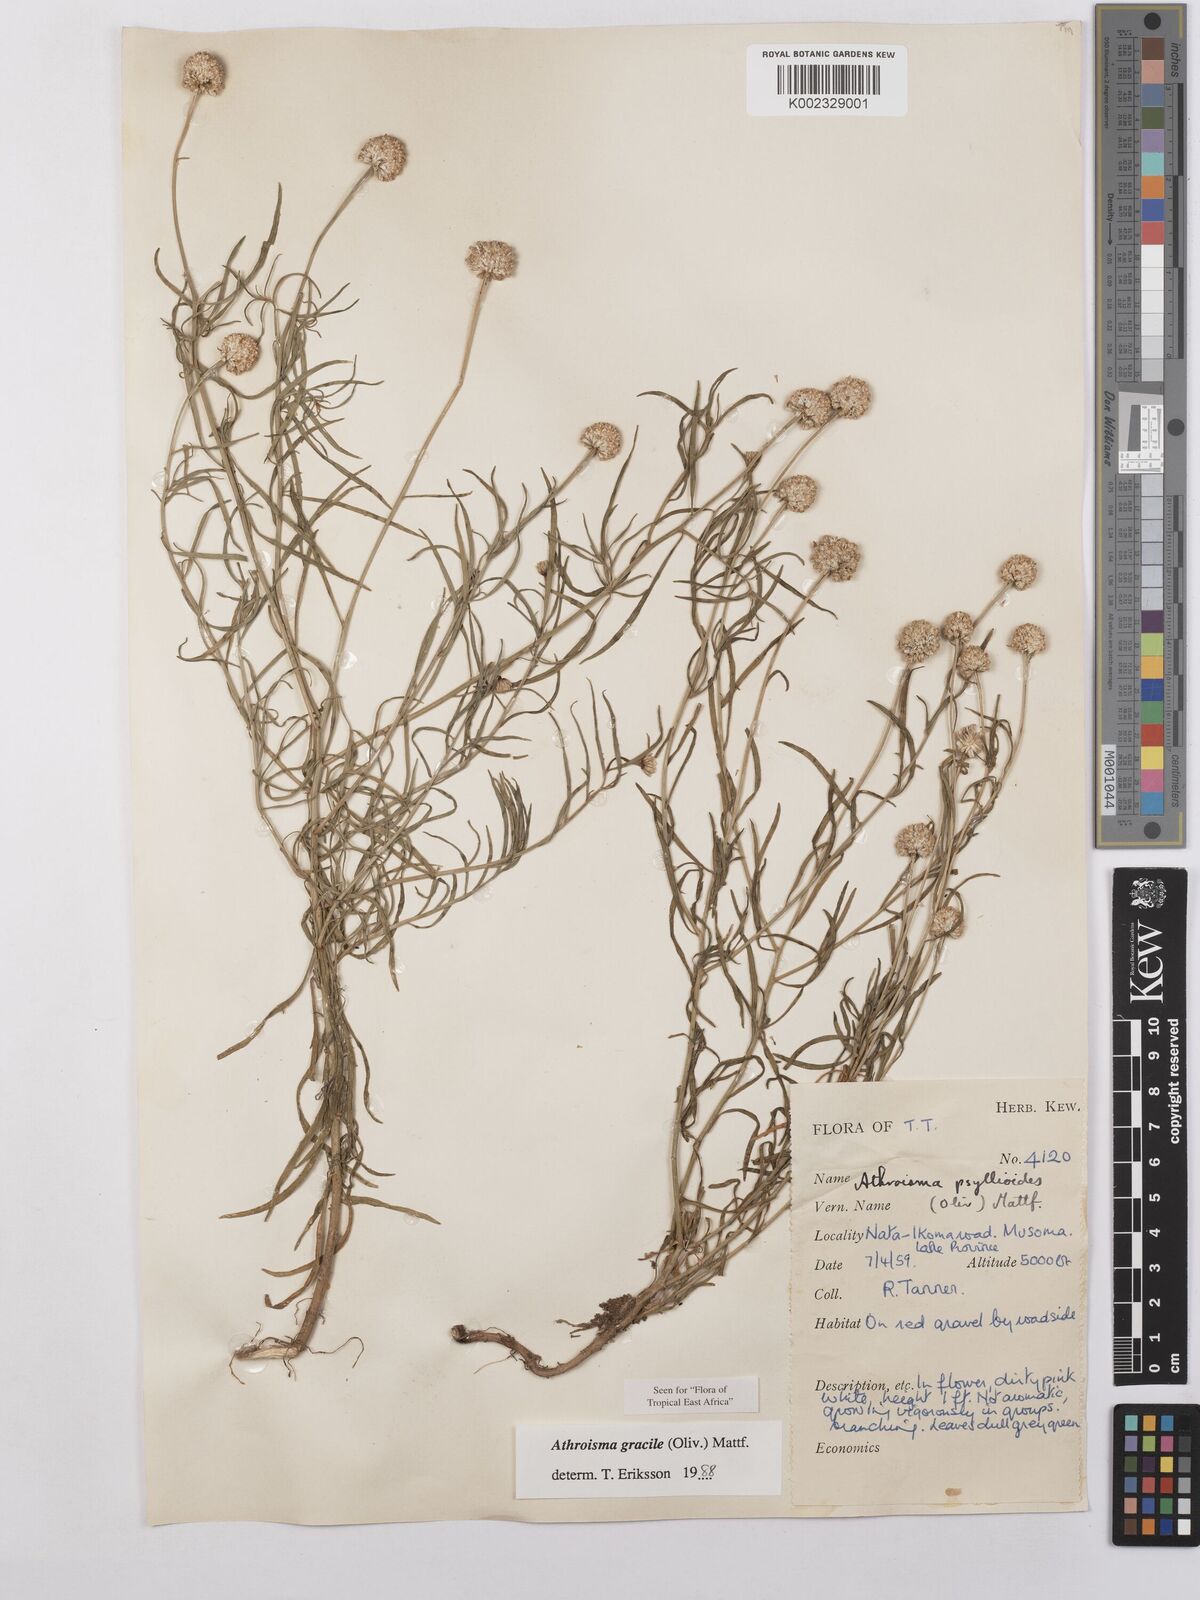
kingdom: Plantae
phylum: Tracheophyta
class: Magnoliopsida
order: Asterales
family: Asteraceae
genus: Athroisma
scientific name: Athroisma gracile
